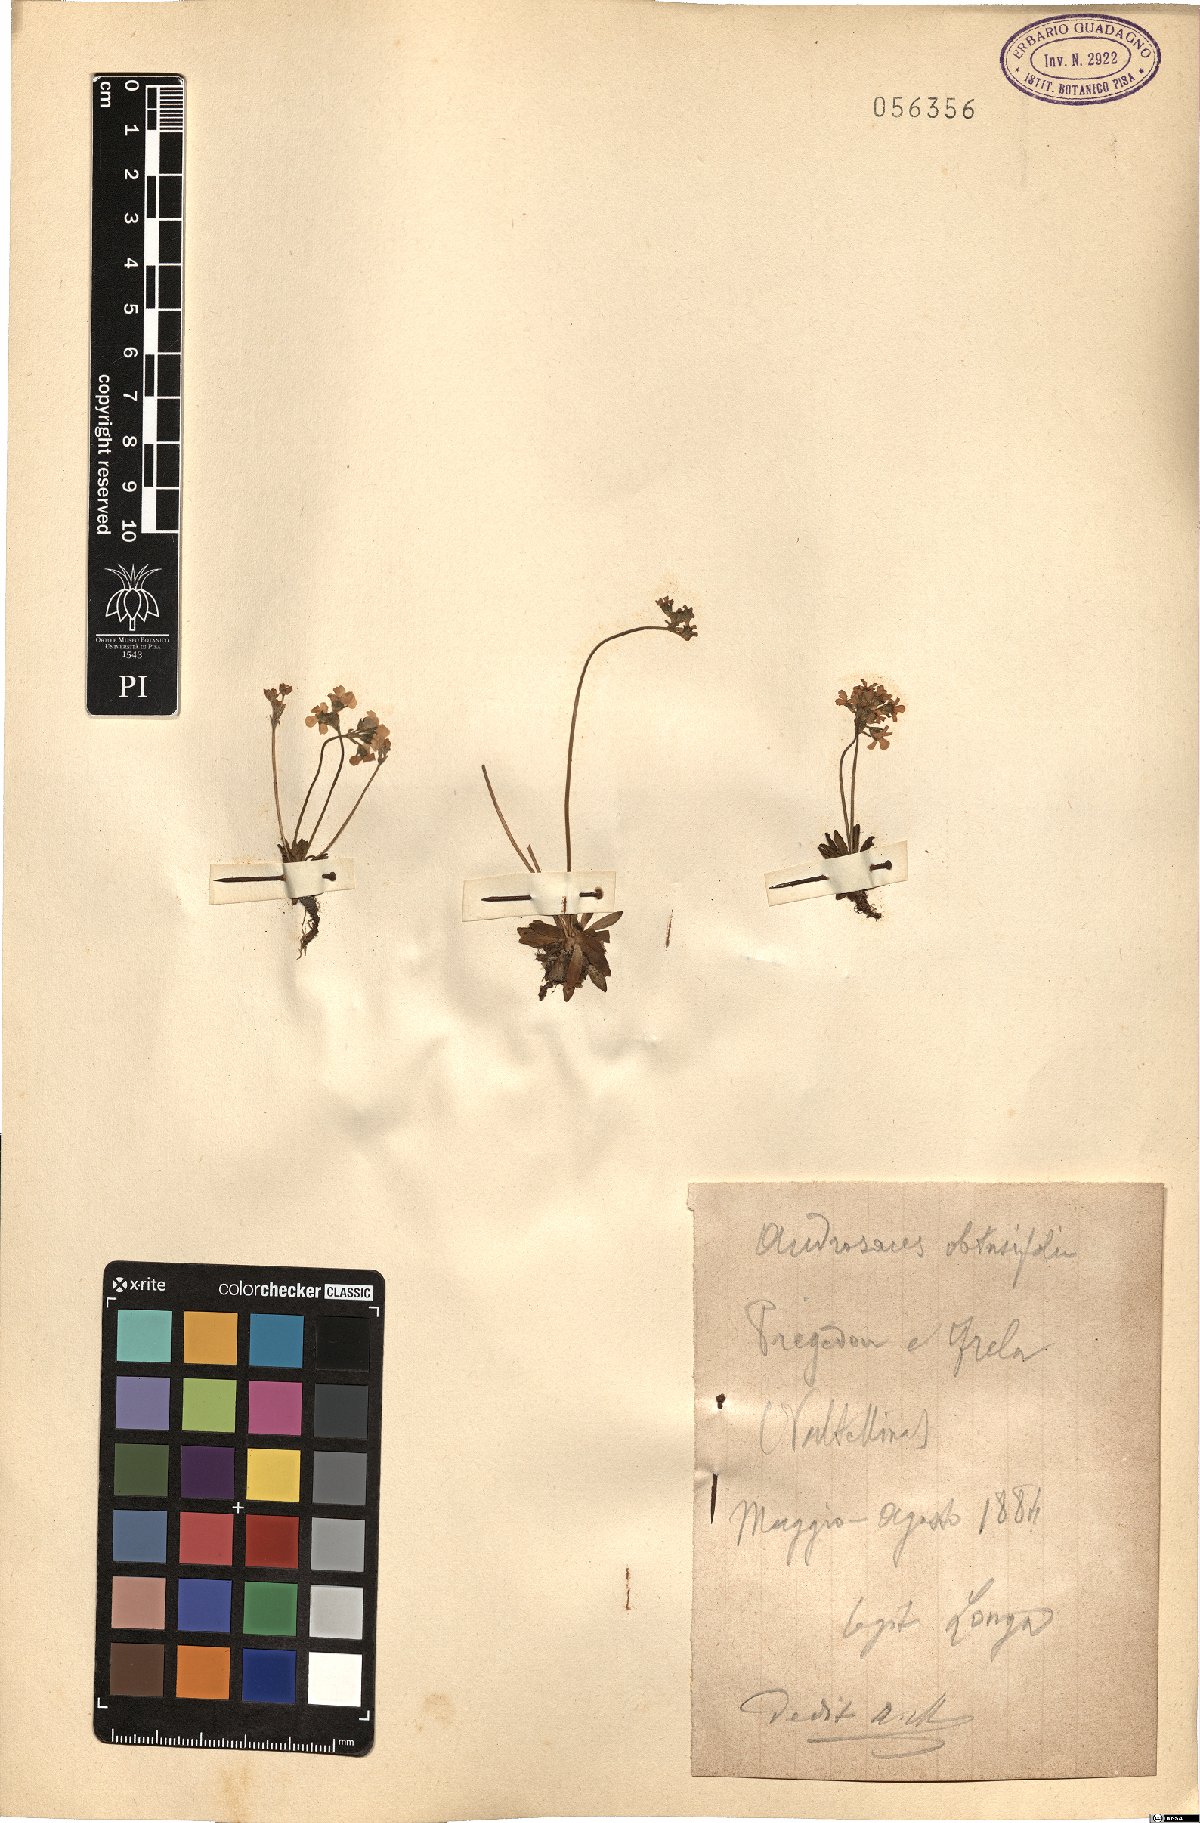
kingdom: Plantae
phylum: Tracheophyta
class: Magnoliopsida
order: Ericales
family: Primulaceae
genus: Androsace
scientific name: Androsace obtusifolia
